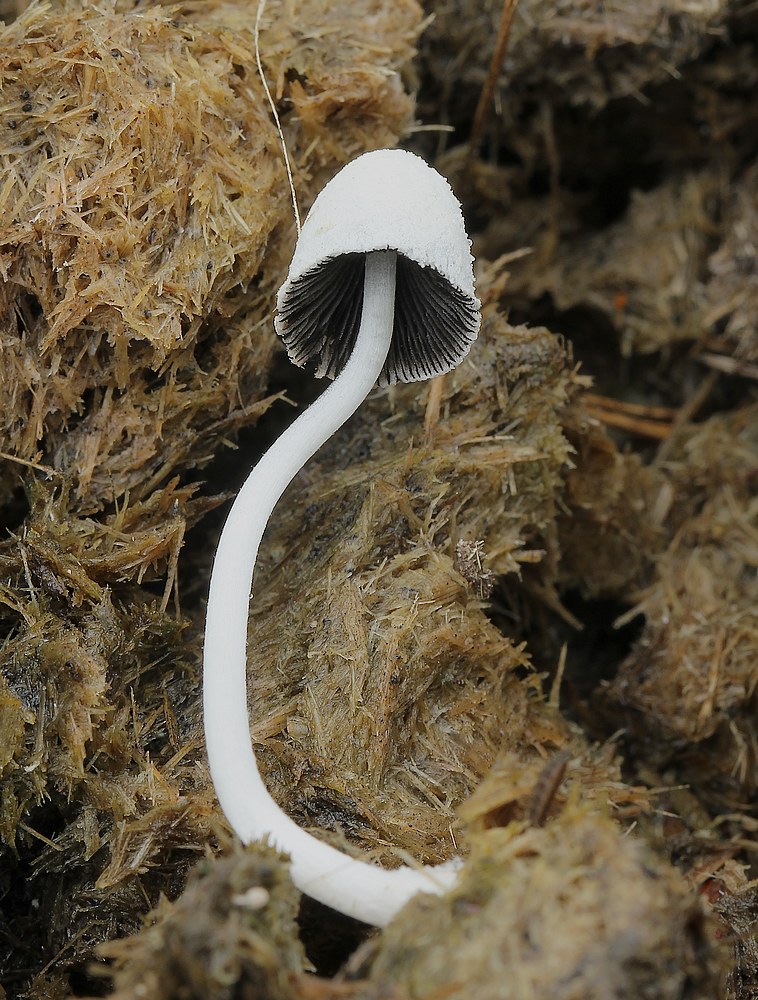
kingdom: Fungi
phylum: Basidiomycota
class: Agaricomycetes
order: Agaricales
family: Psathyrellaceae
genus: Coprinopsis
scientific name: Coprinopsis nivea
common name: snehvid blækhat
